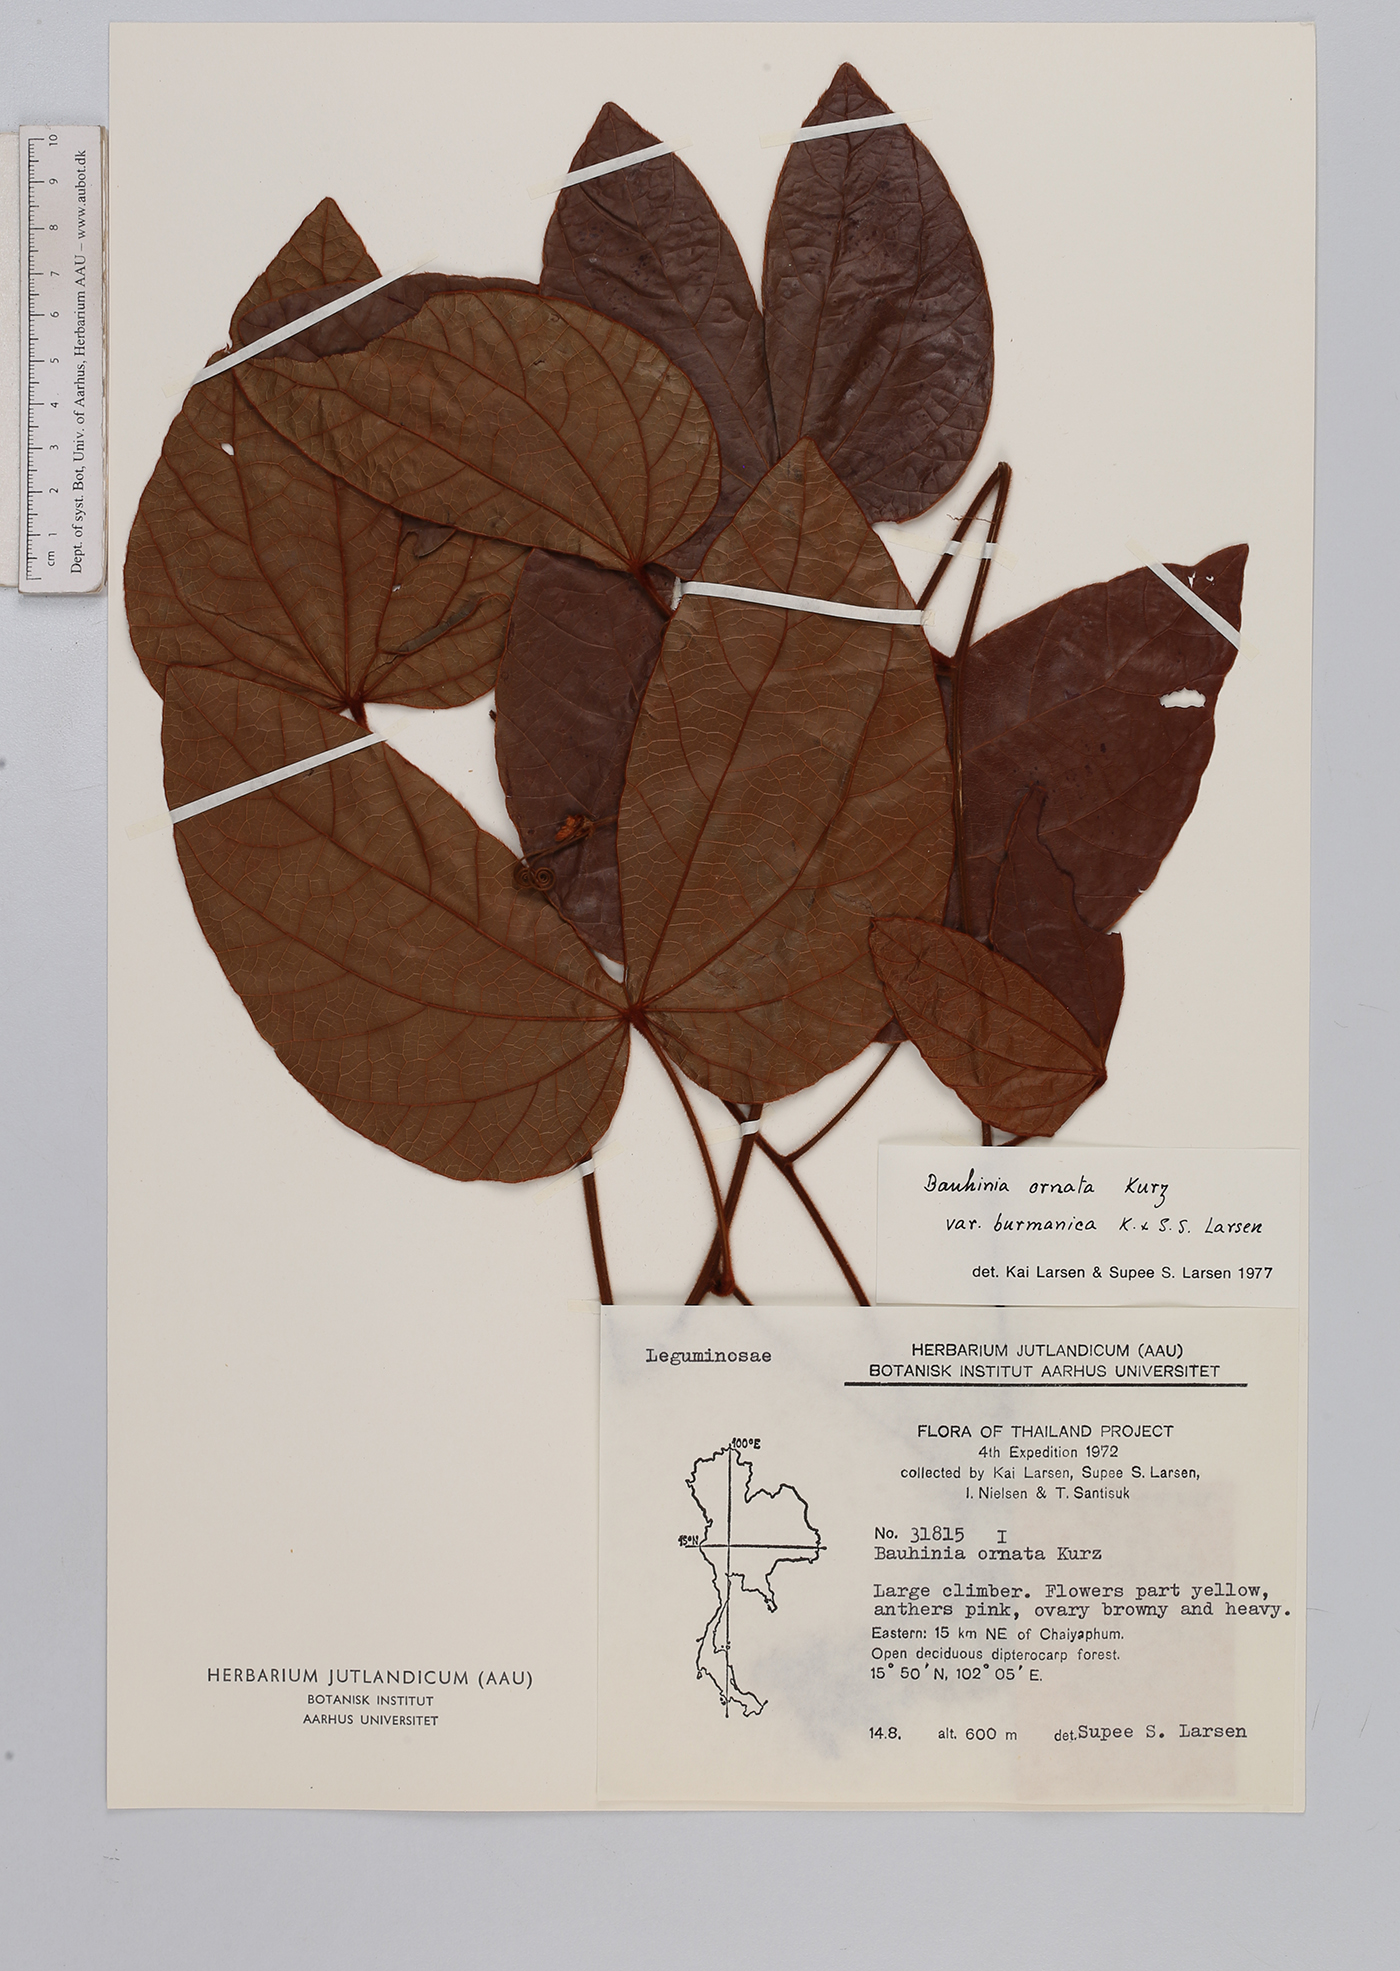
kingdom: Plantae
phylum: Tracheophyta
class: Magnoliopsida
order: Fabales
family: Fabaceae
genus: Phanera
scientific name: Phanera ornata
